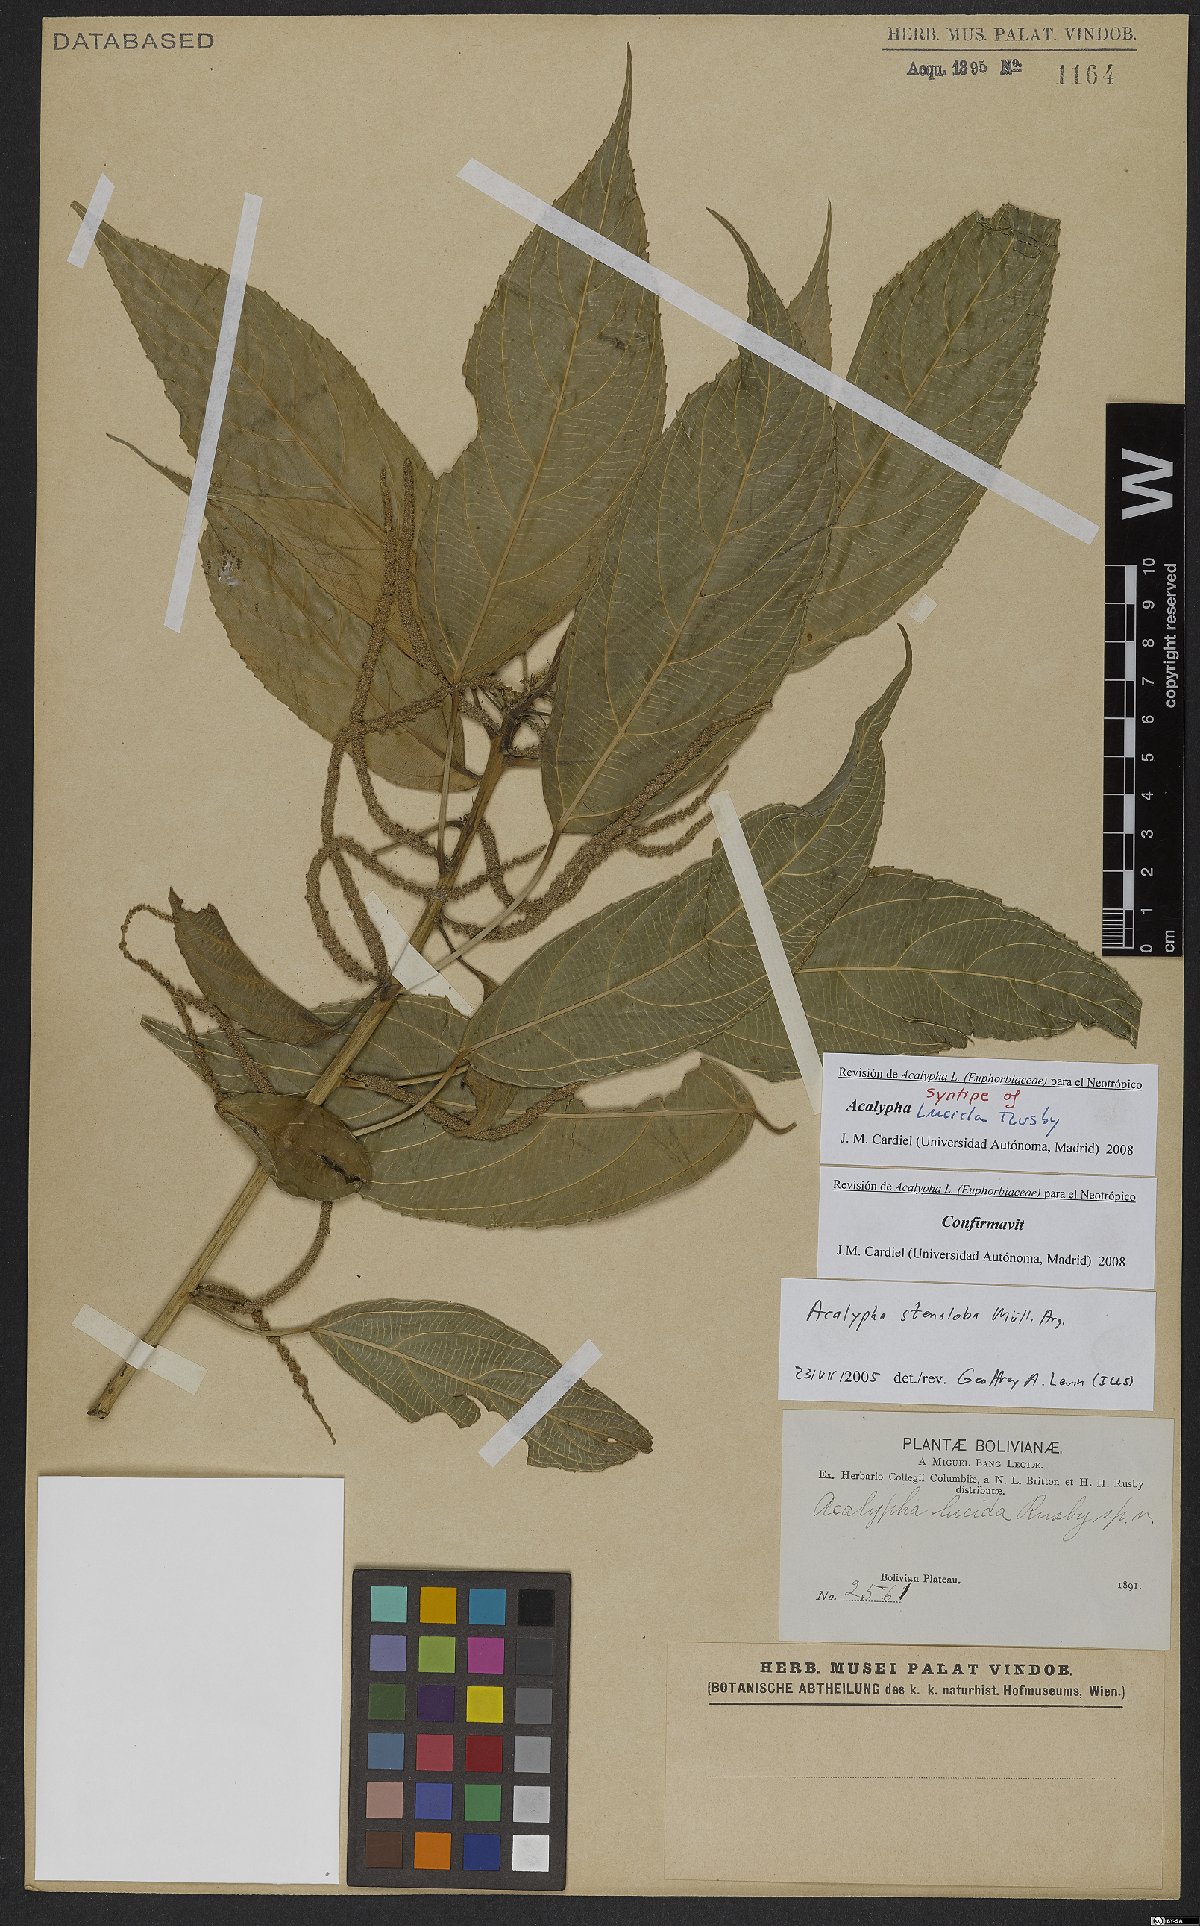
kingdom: Plantae
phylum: Tracheophyta
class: Magnoliopsida
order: Malpighiales
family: Euphorbiaceae
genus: Acalypha
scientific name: Acalypha stenoloba
